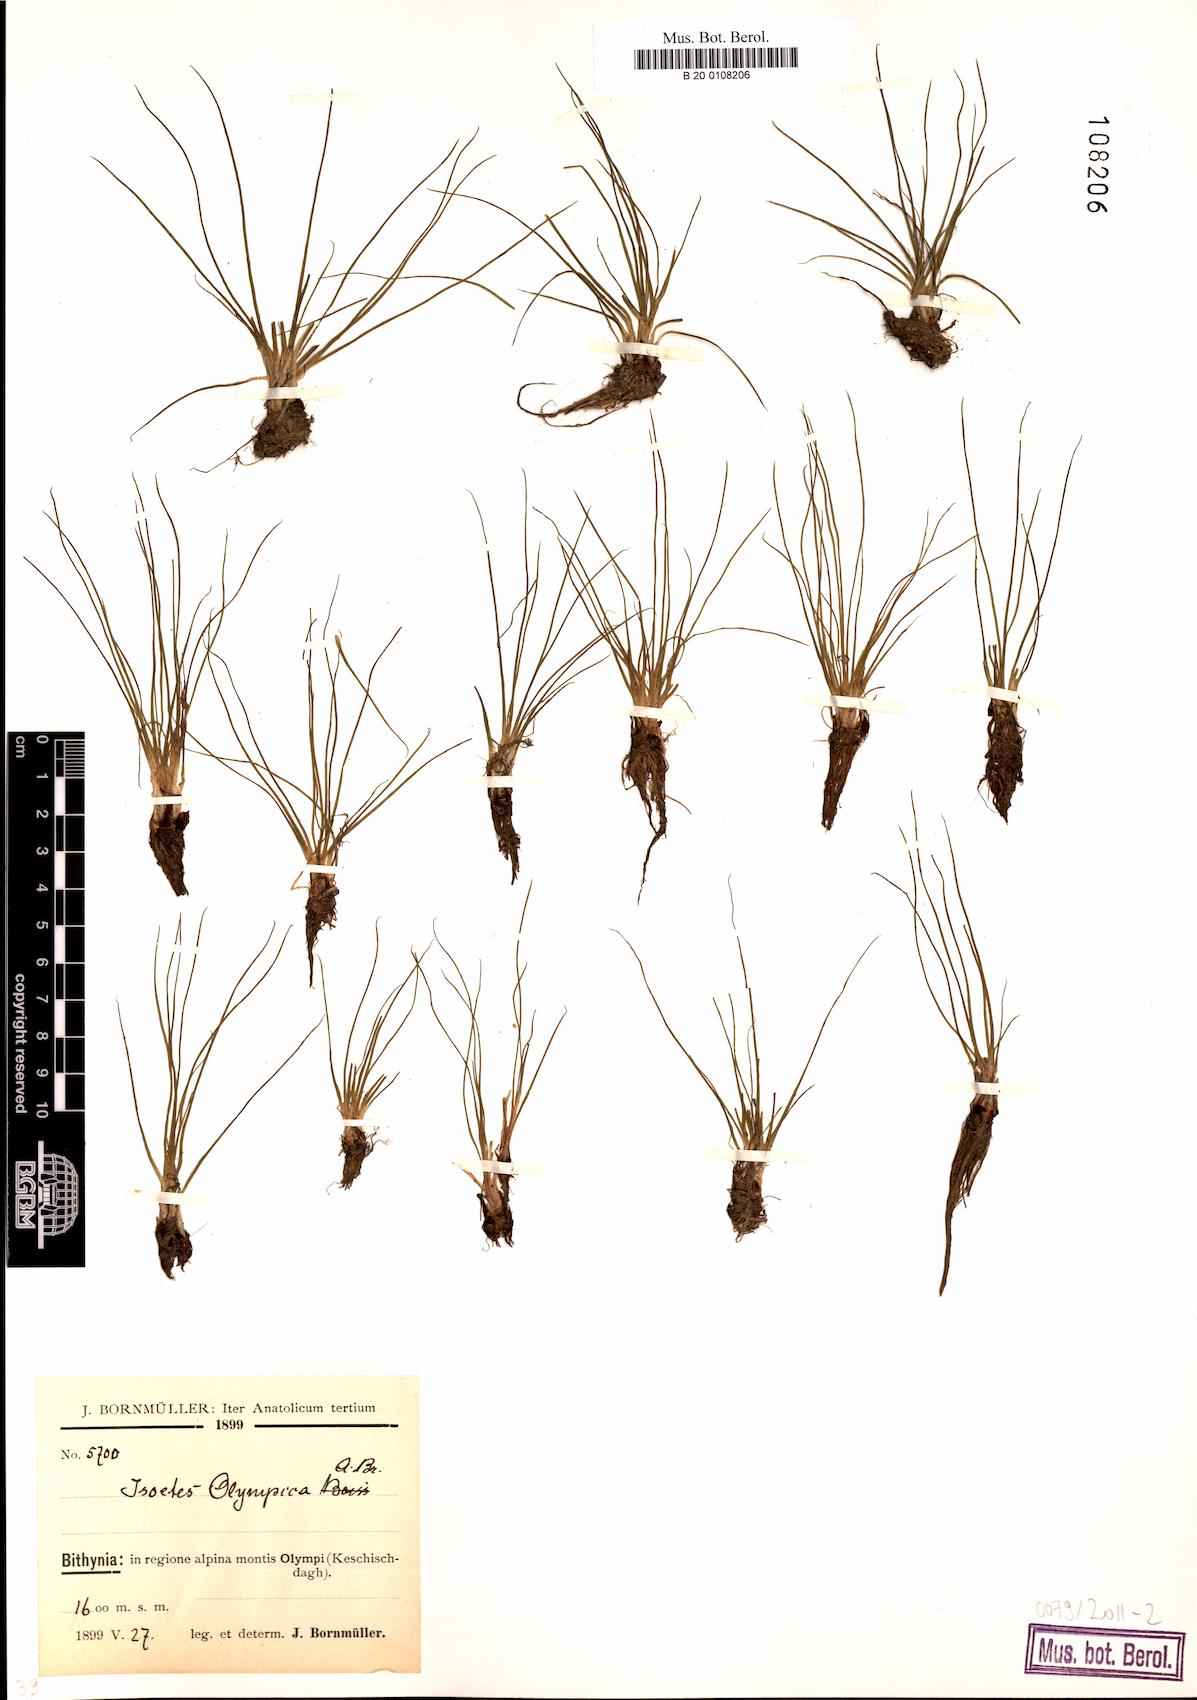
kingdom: Plantae
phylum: Tracheophyta
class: Lycopodiopsida
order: Isoetales
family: Isoetaceae
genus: Isoetes
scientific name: Isoetes olympica
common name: Olympic quillwort
